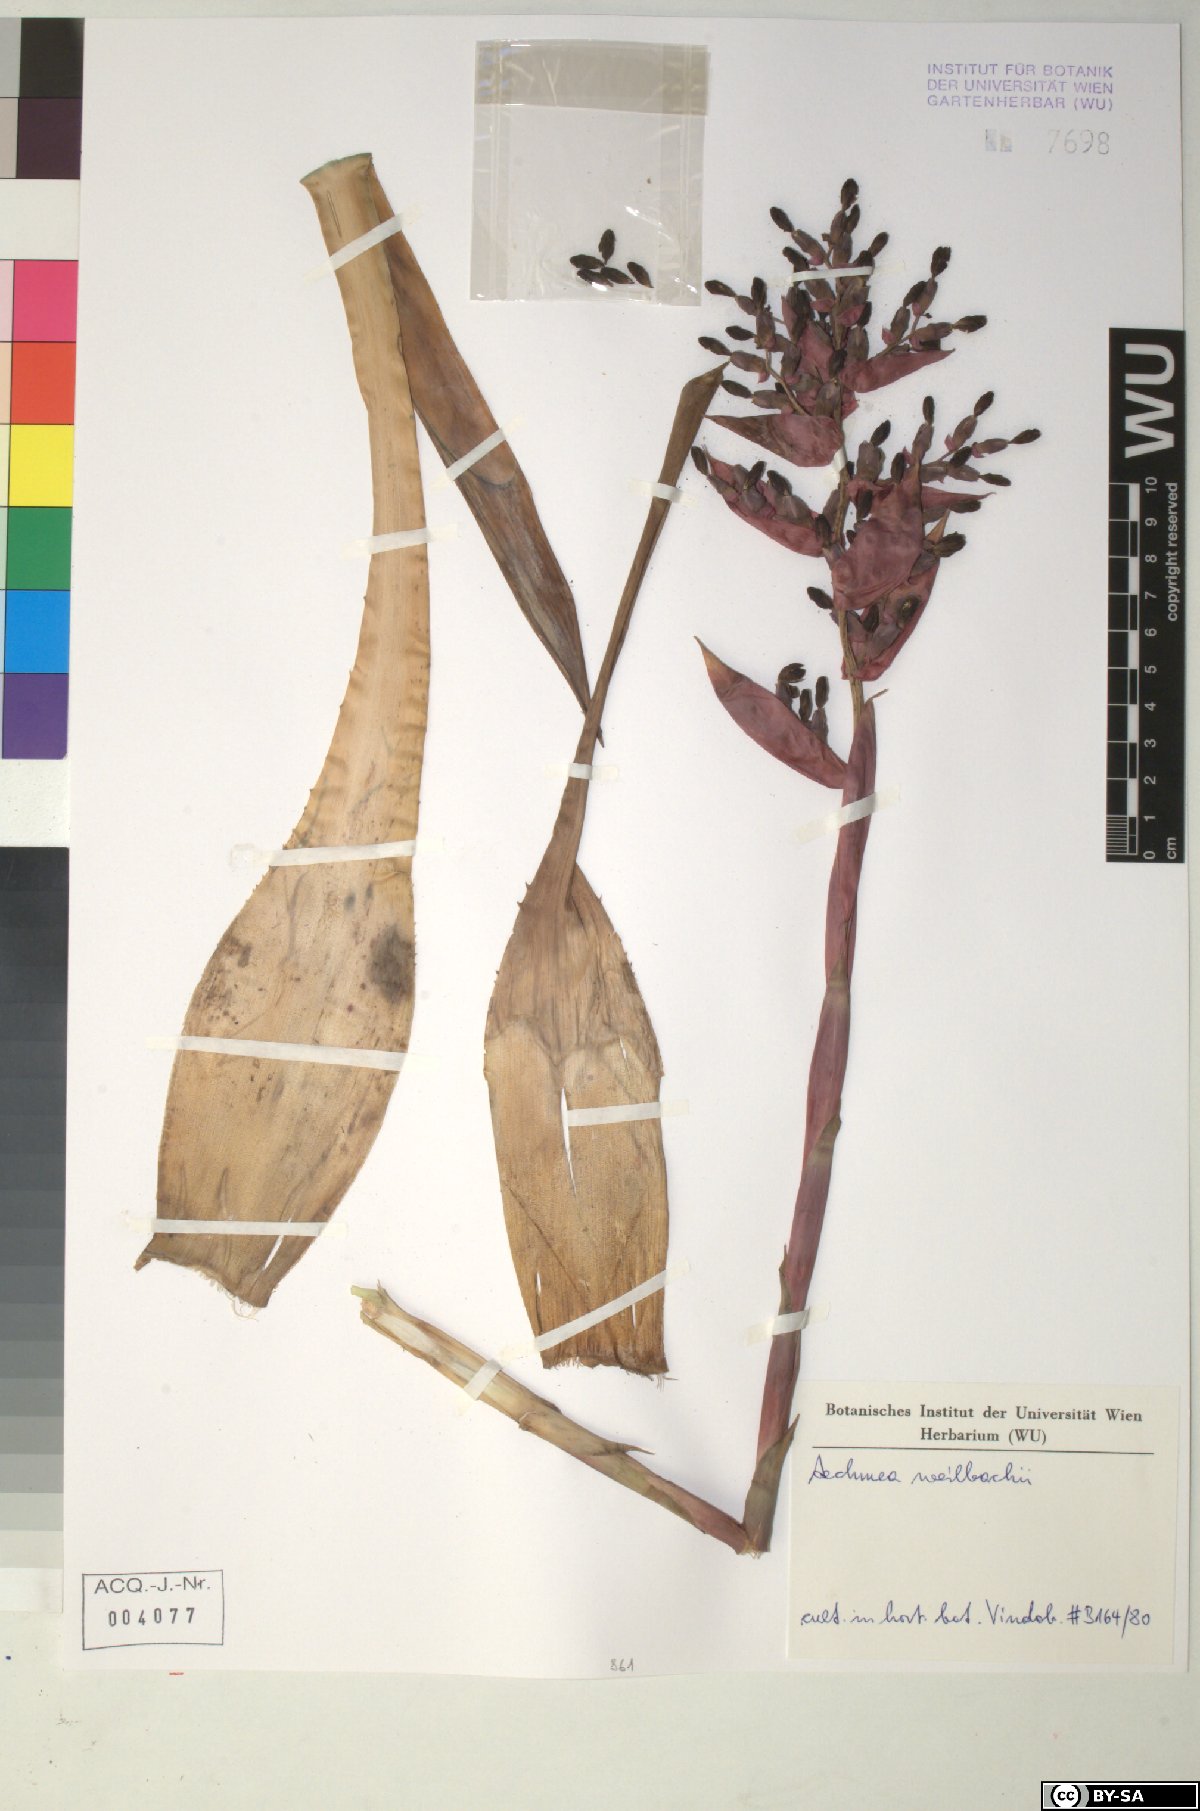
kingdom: Plantae
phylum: Tracheophyta
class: Liliopsida
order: Poales
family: Bromeliaceae
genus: Aechmea
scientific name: Aechmea
